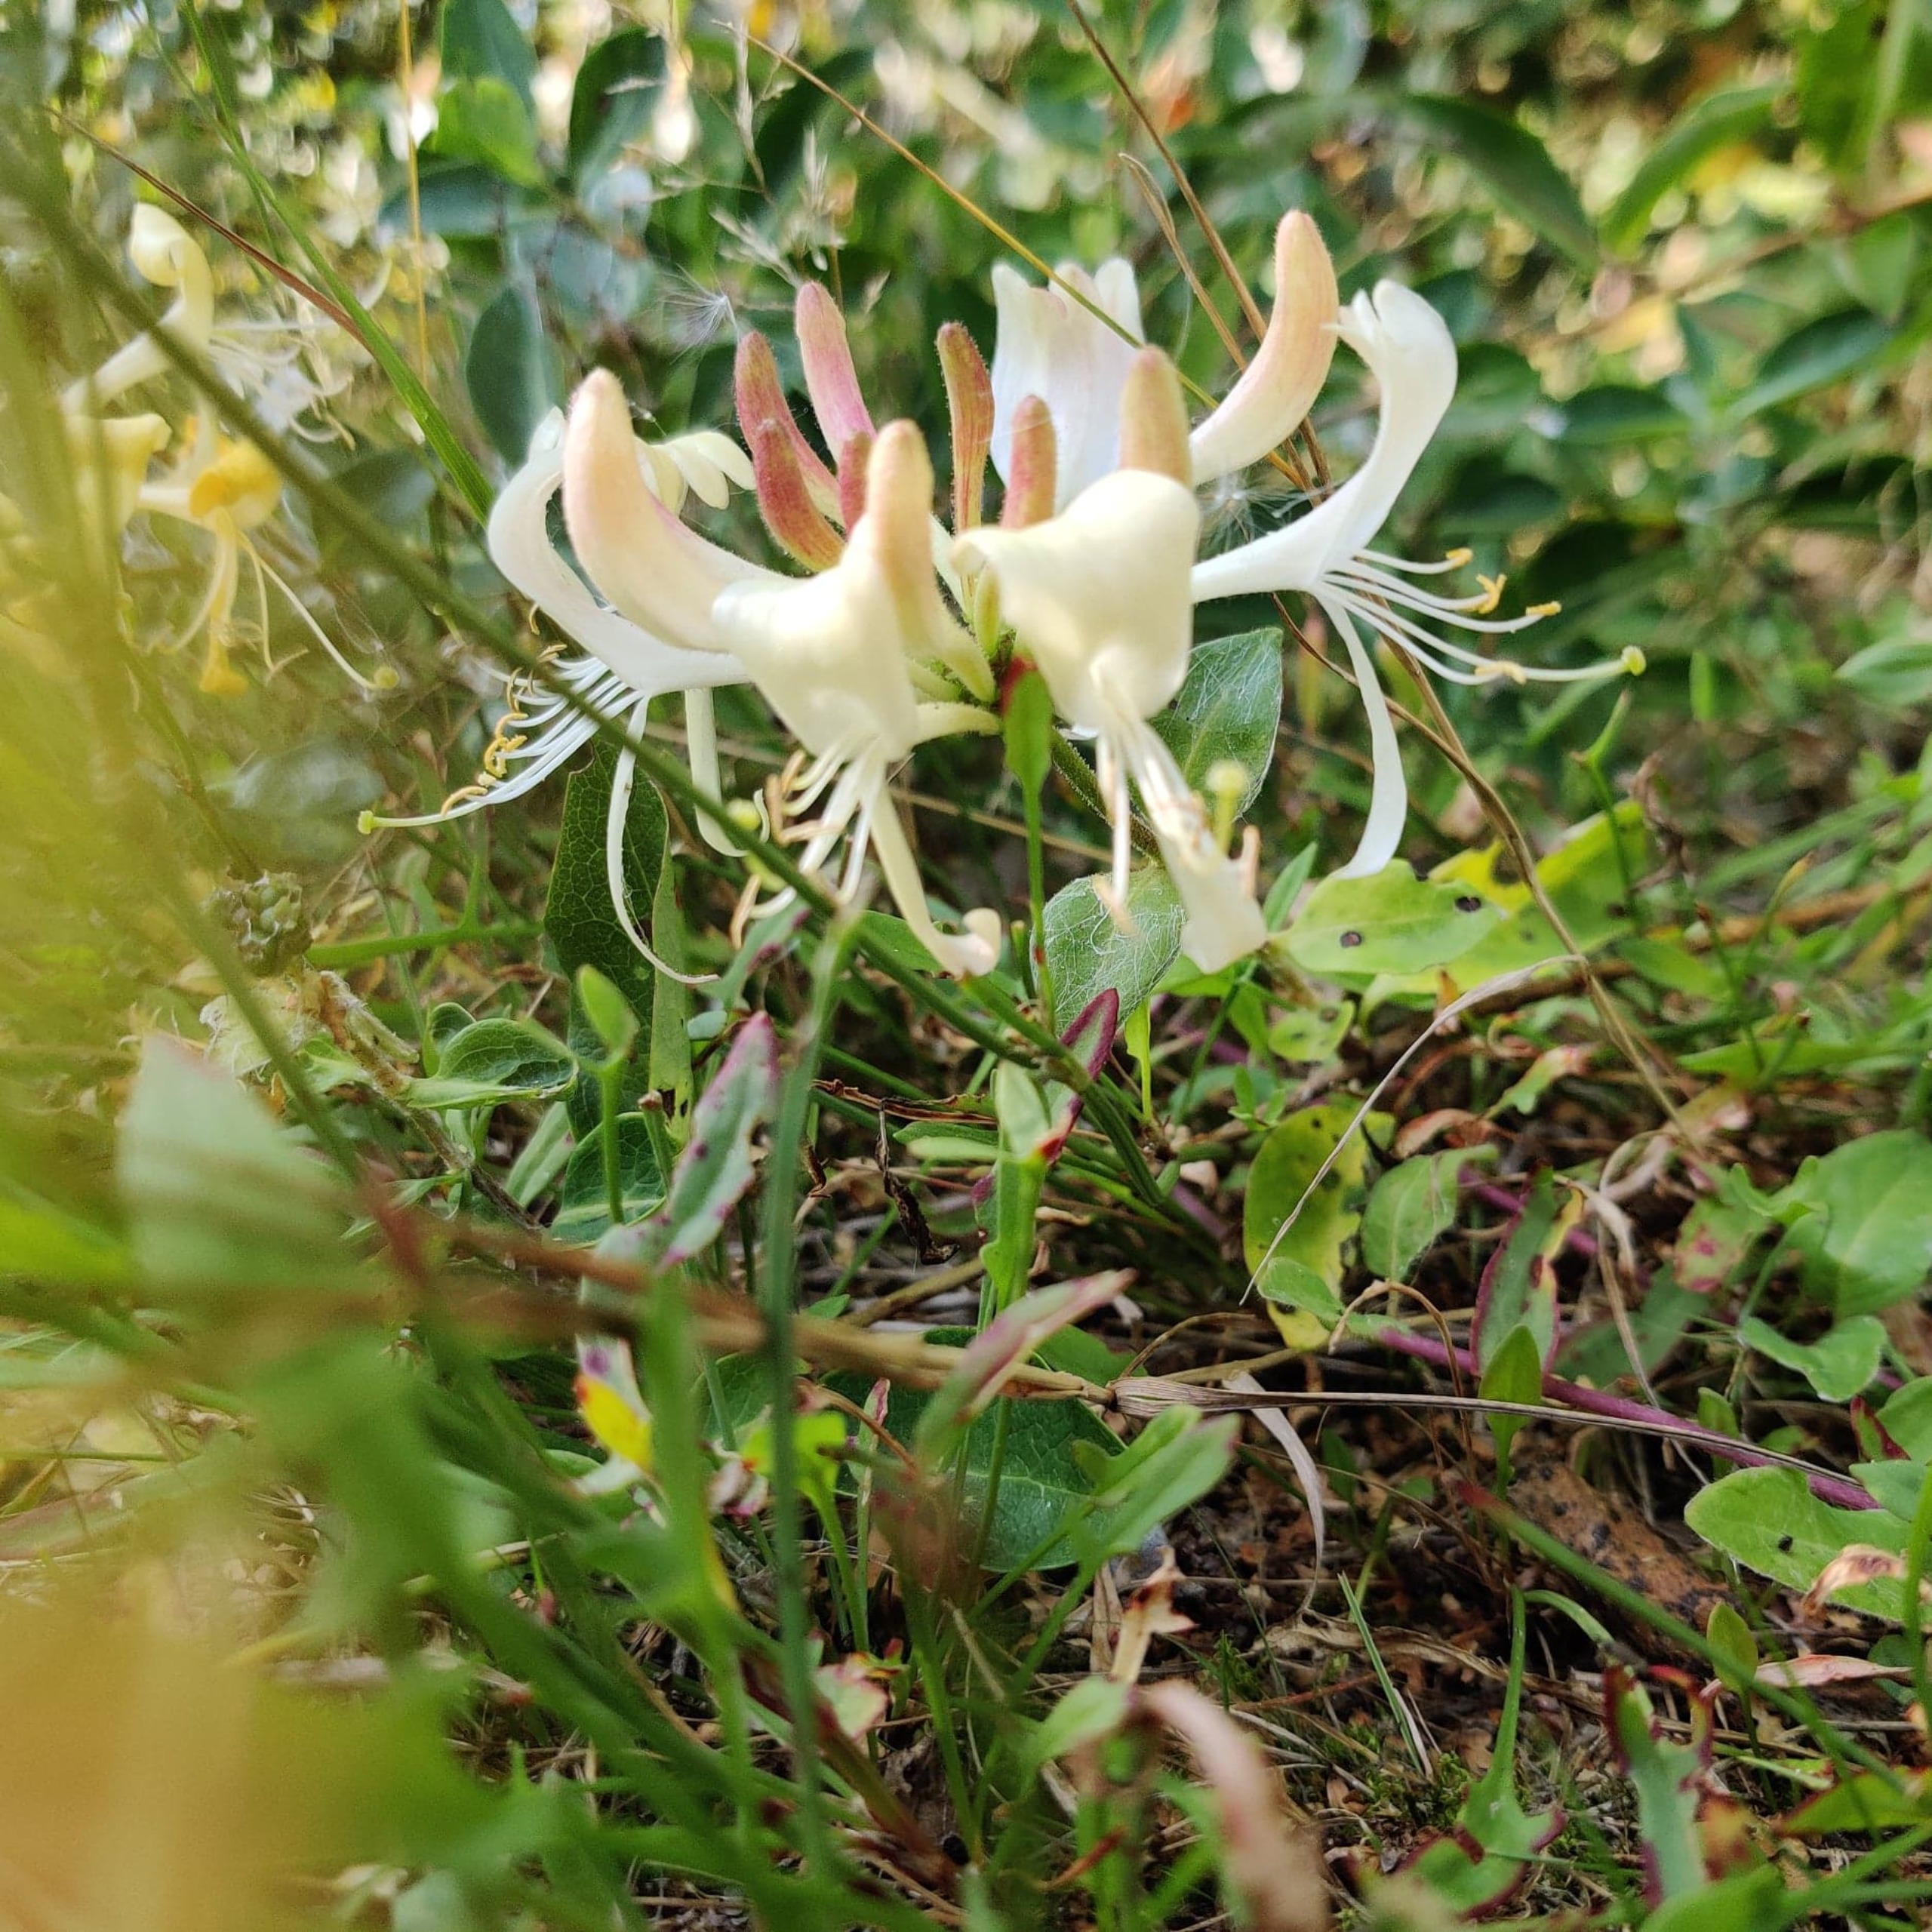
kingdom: Plantae
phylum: Tracheophyta
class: Magnoliopsida
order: Dipsacales
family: Caprifoliaceae
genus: Lonicera
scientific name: Lonicera periclymenum
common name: Almindelig gedeblad
